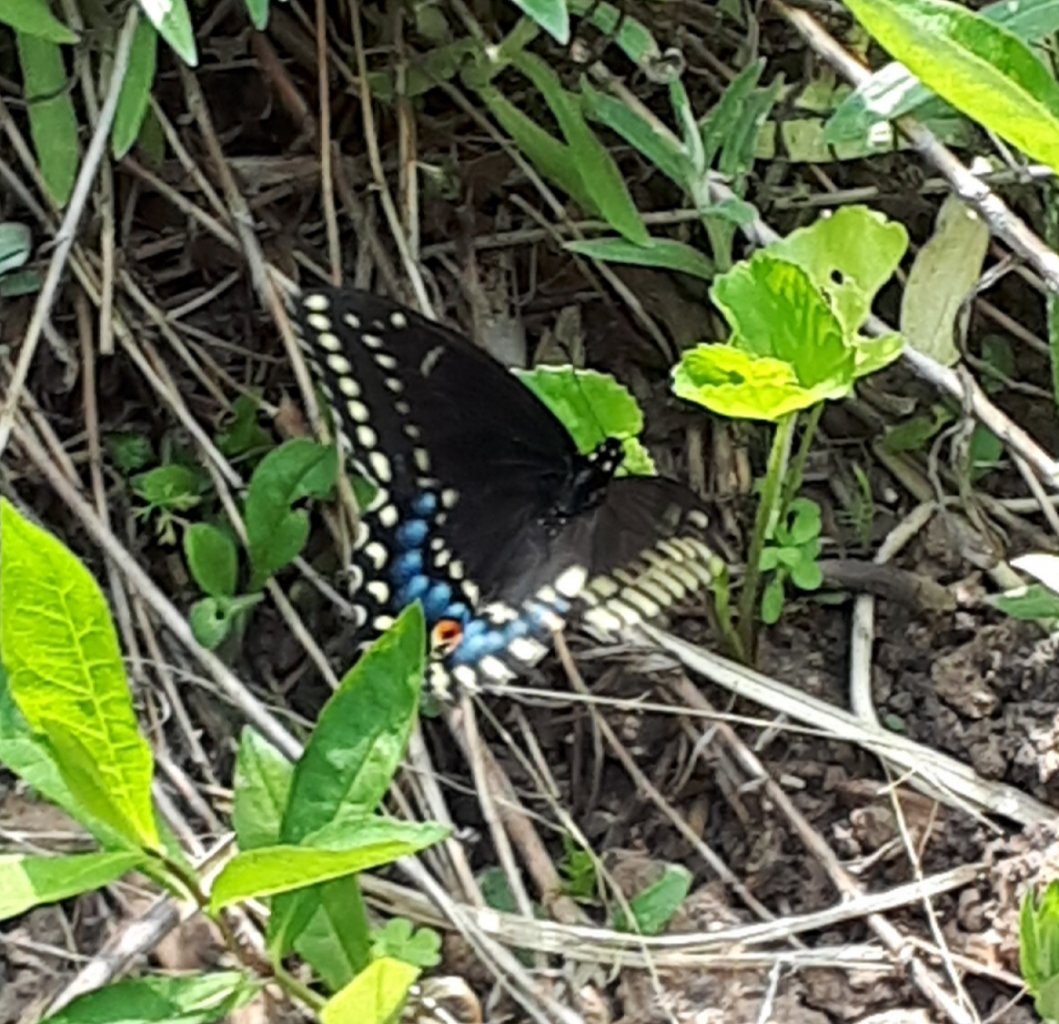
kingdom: Animalia
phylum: Arthropoda
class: Insecta
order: Lepidoptera
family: Papilionidae
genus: Papilio
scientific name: Papilio polyxenes
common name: Black Swallowtail
